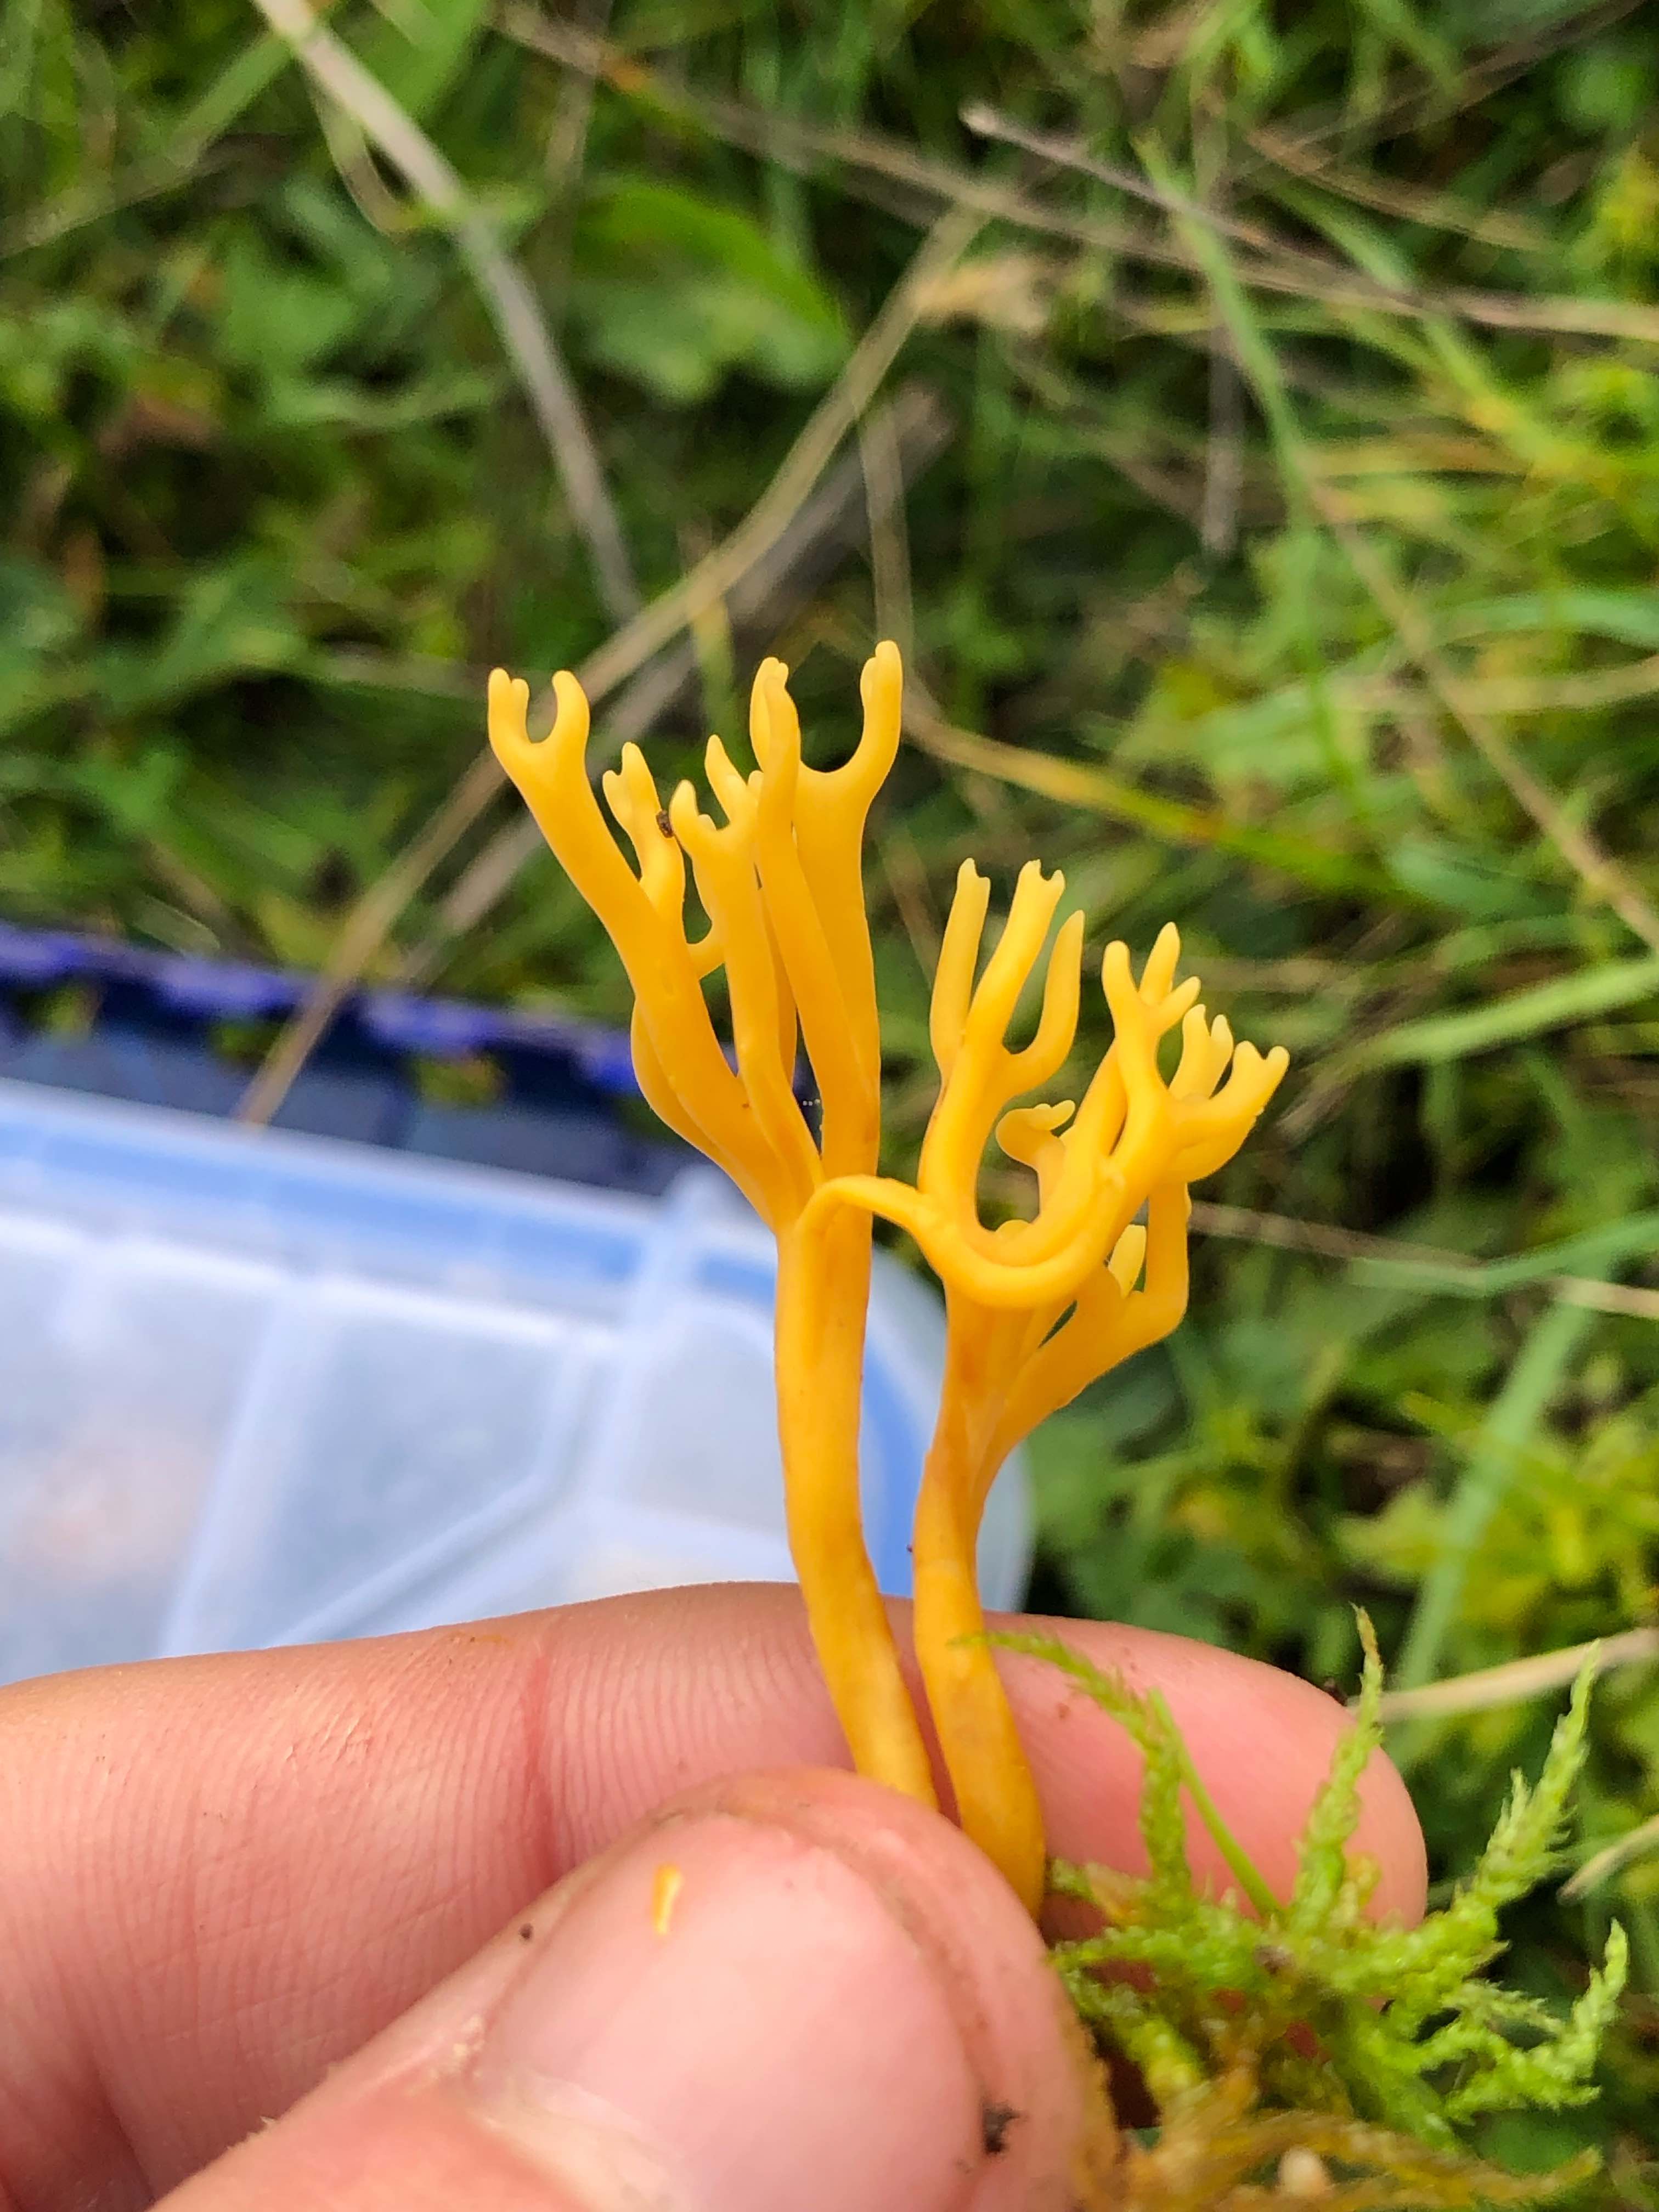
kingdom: Fungi
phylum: Basidiomycota
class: Agaricomycetes
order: Agaricales
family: Clavariaceae
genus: Clavulinopsis
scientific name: Clavulinopsis corniculata
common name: eng-køllesvamp
